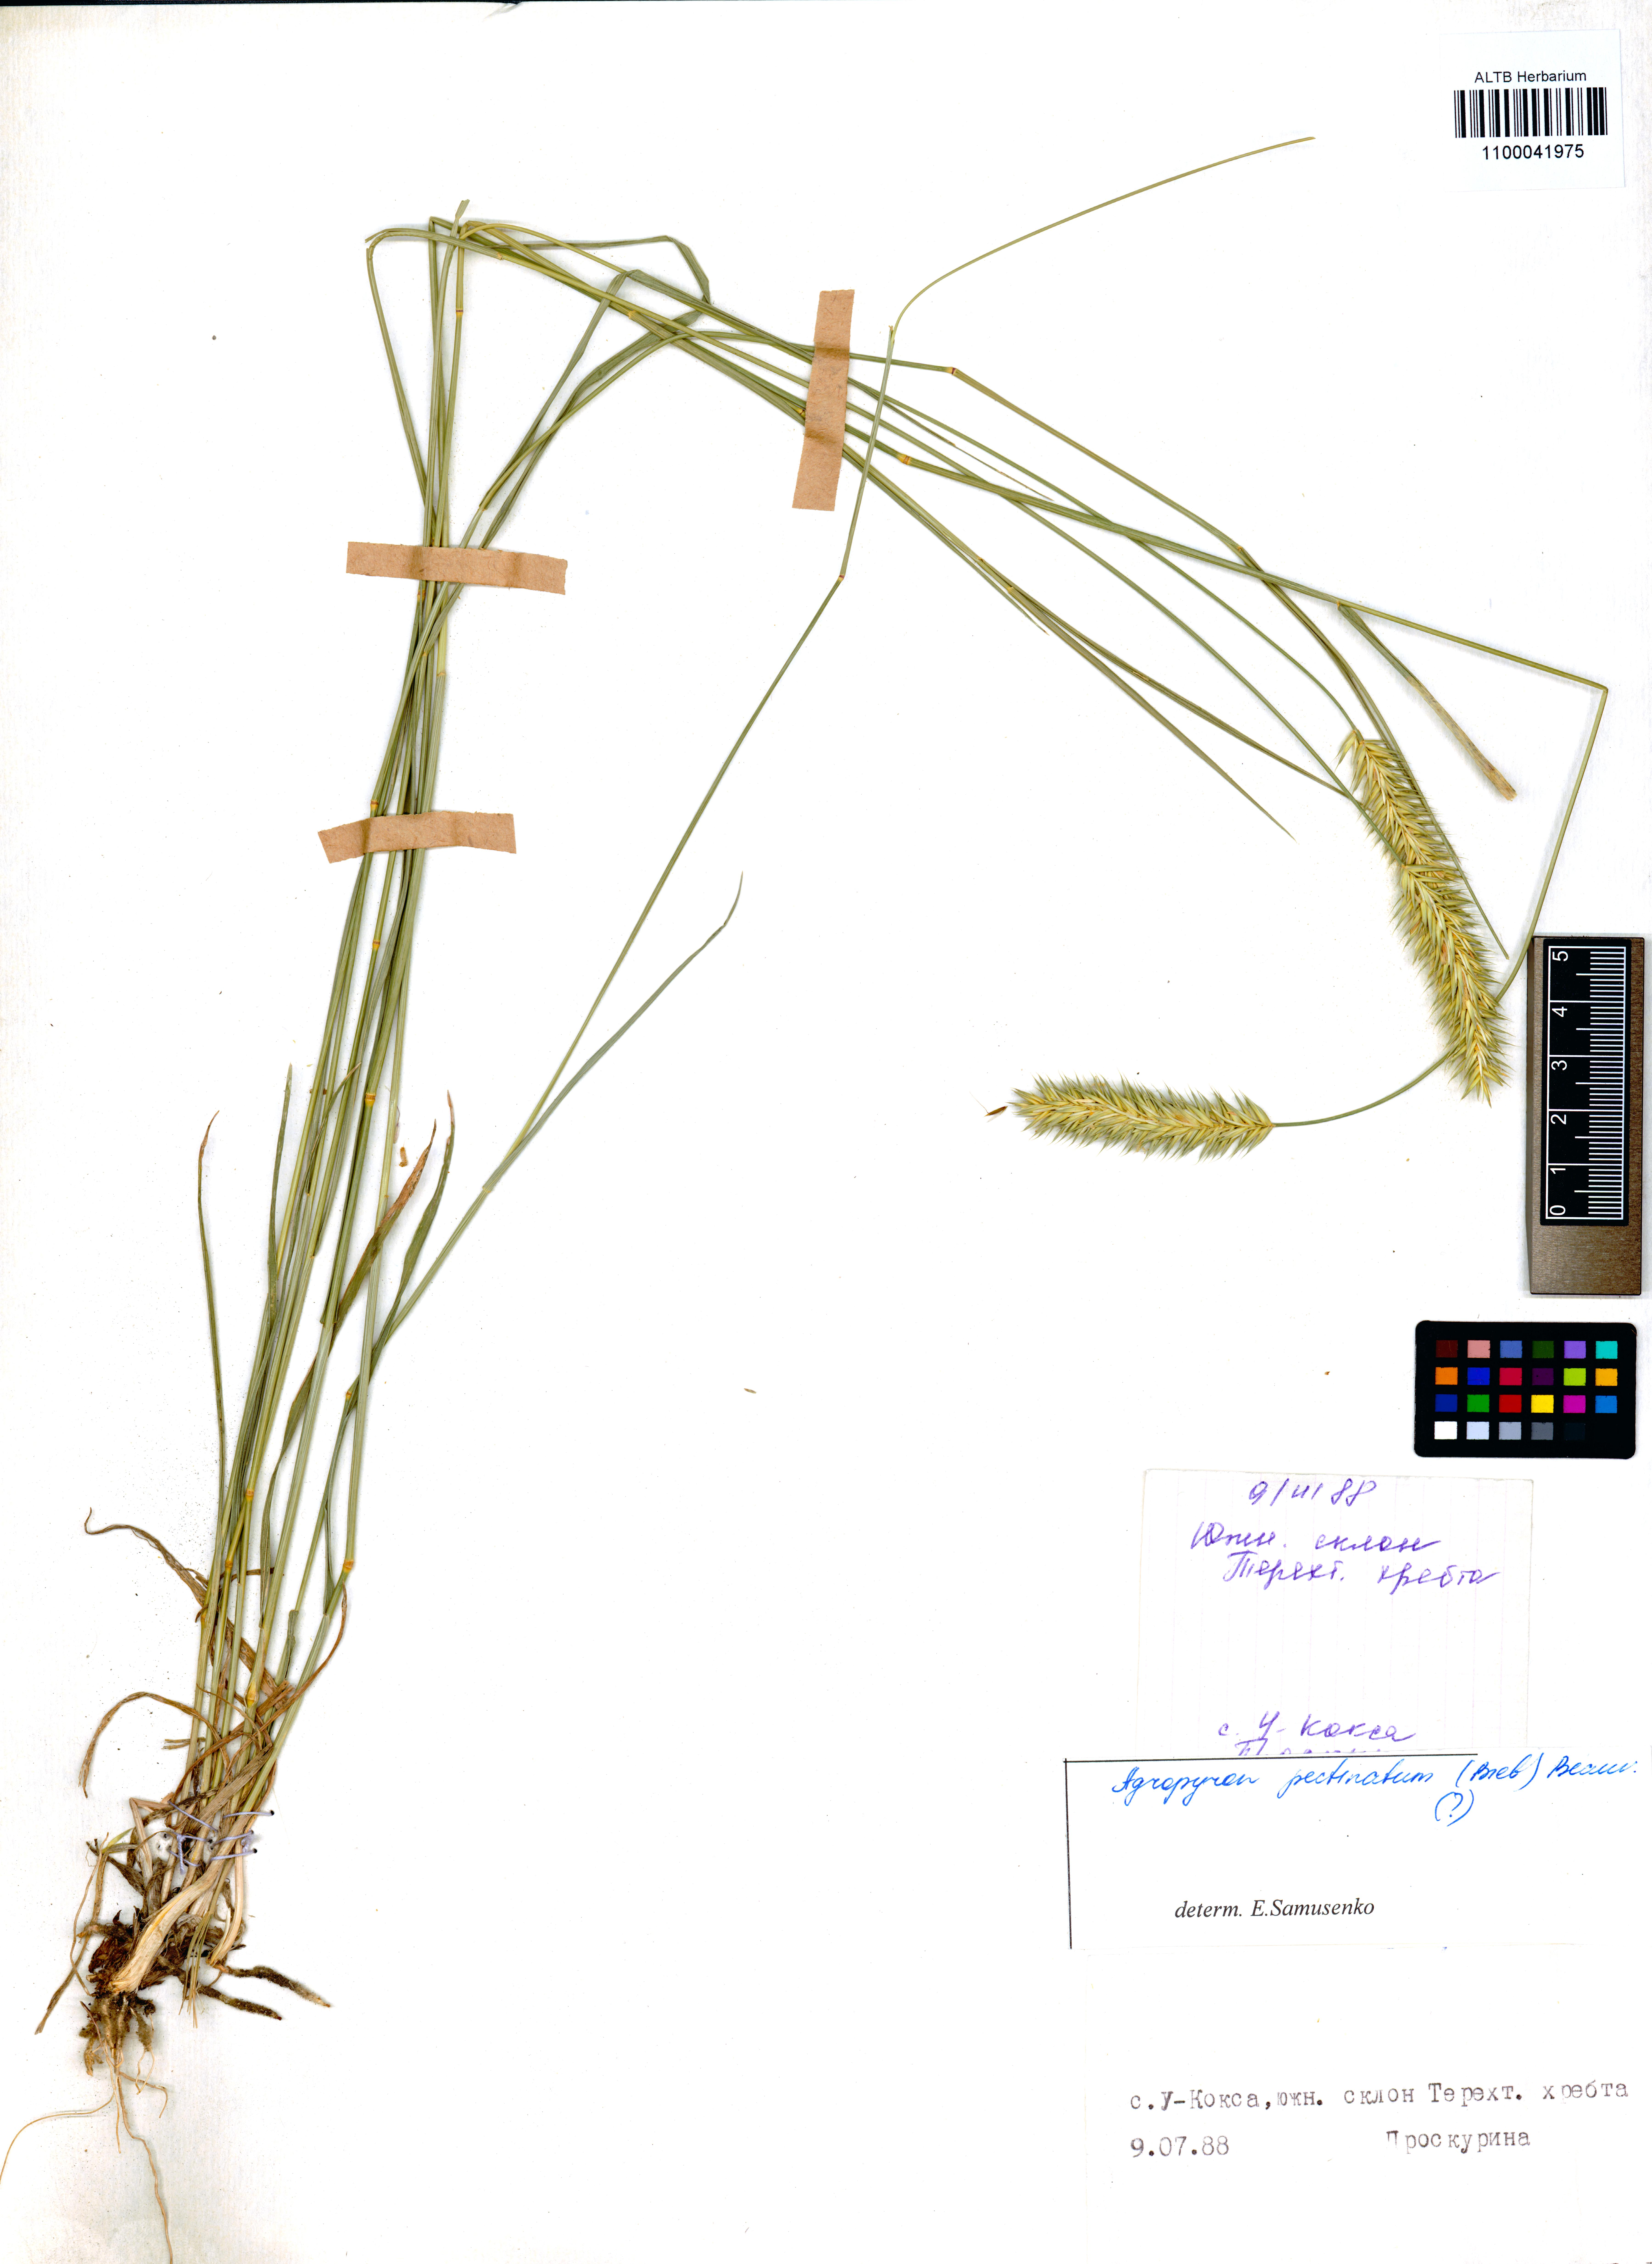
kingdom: Plantae
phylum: Tracheophyta
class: Liliopsida
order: Poales
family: Poaceae
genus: Agropyron
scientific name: Agropyron cristatum
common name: Crested wheatgrass
